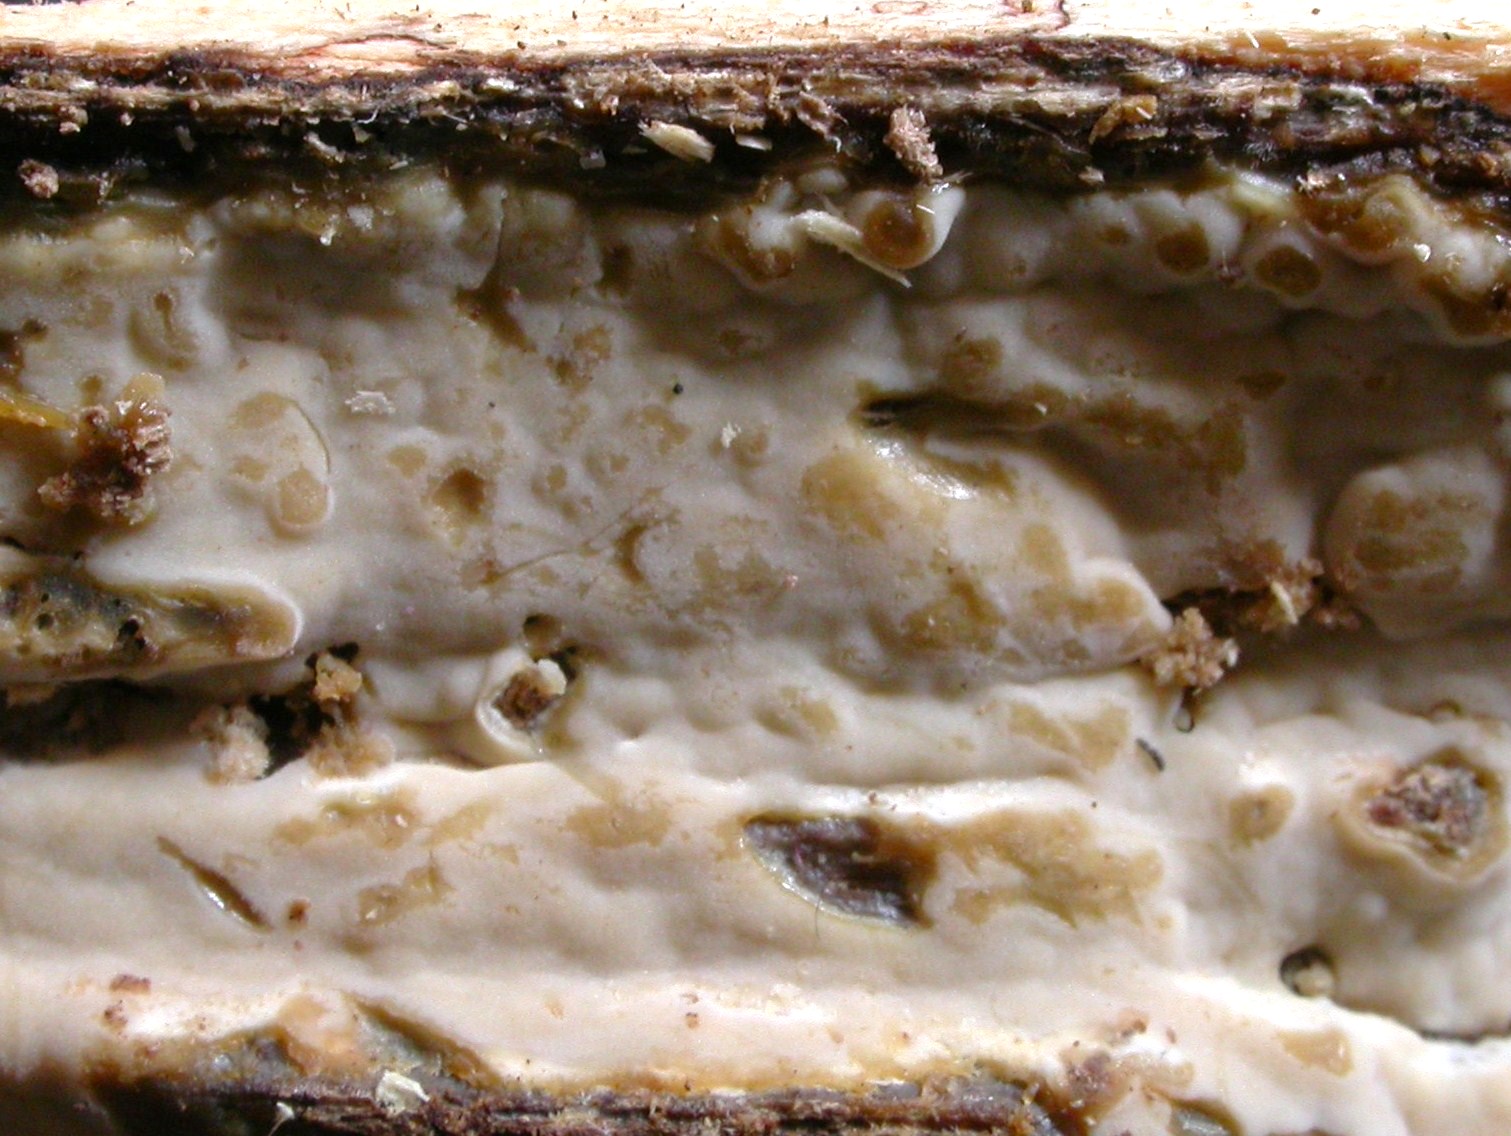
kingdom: Fungi
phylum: Basidiomycota
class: Agaricomycetes
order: Russulales
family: Peniophoraceae
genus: Gloiothele
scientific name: Gloiothele lactescens
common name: bitter olieskind
